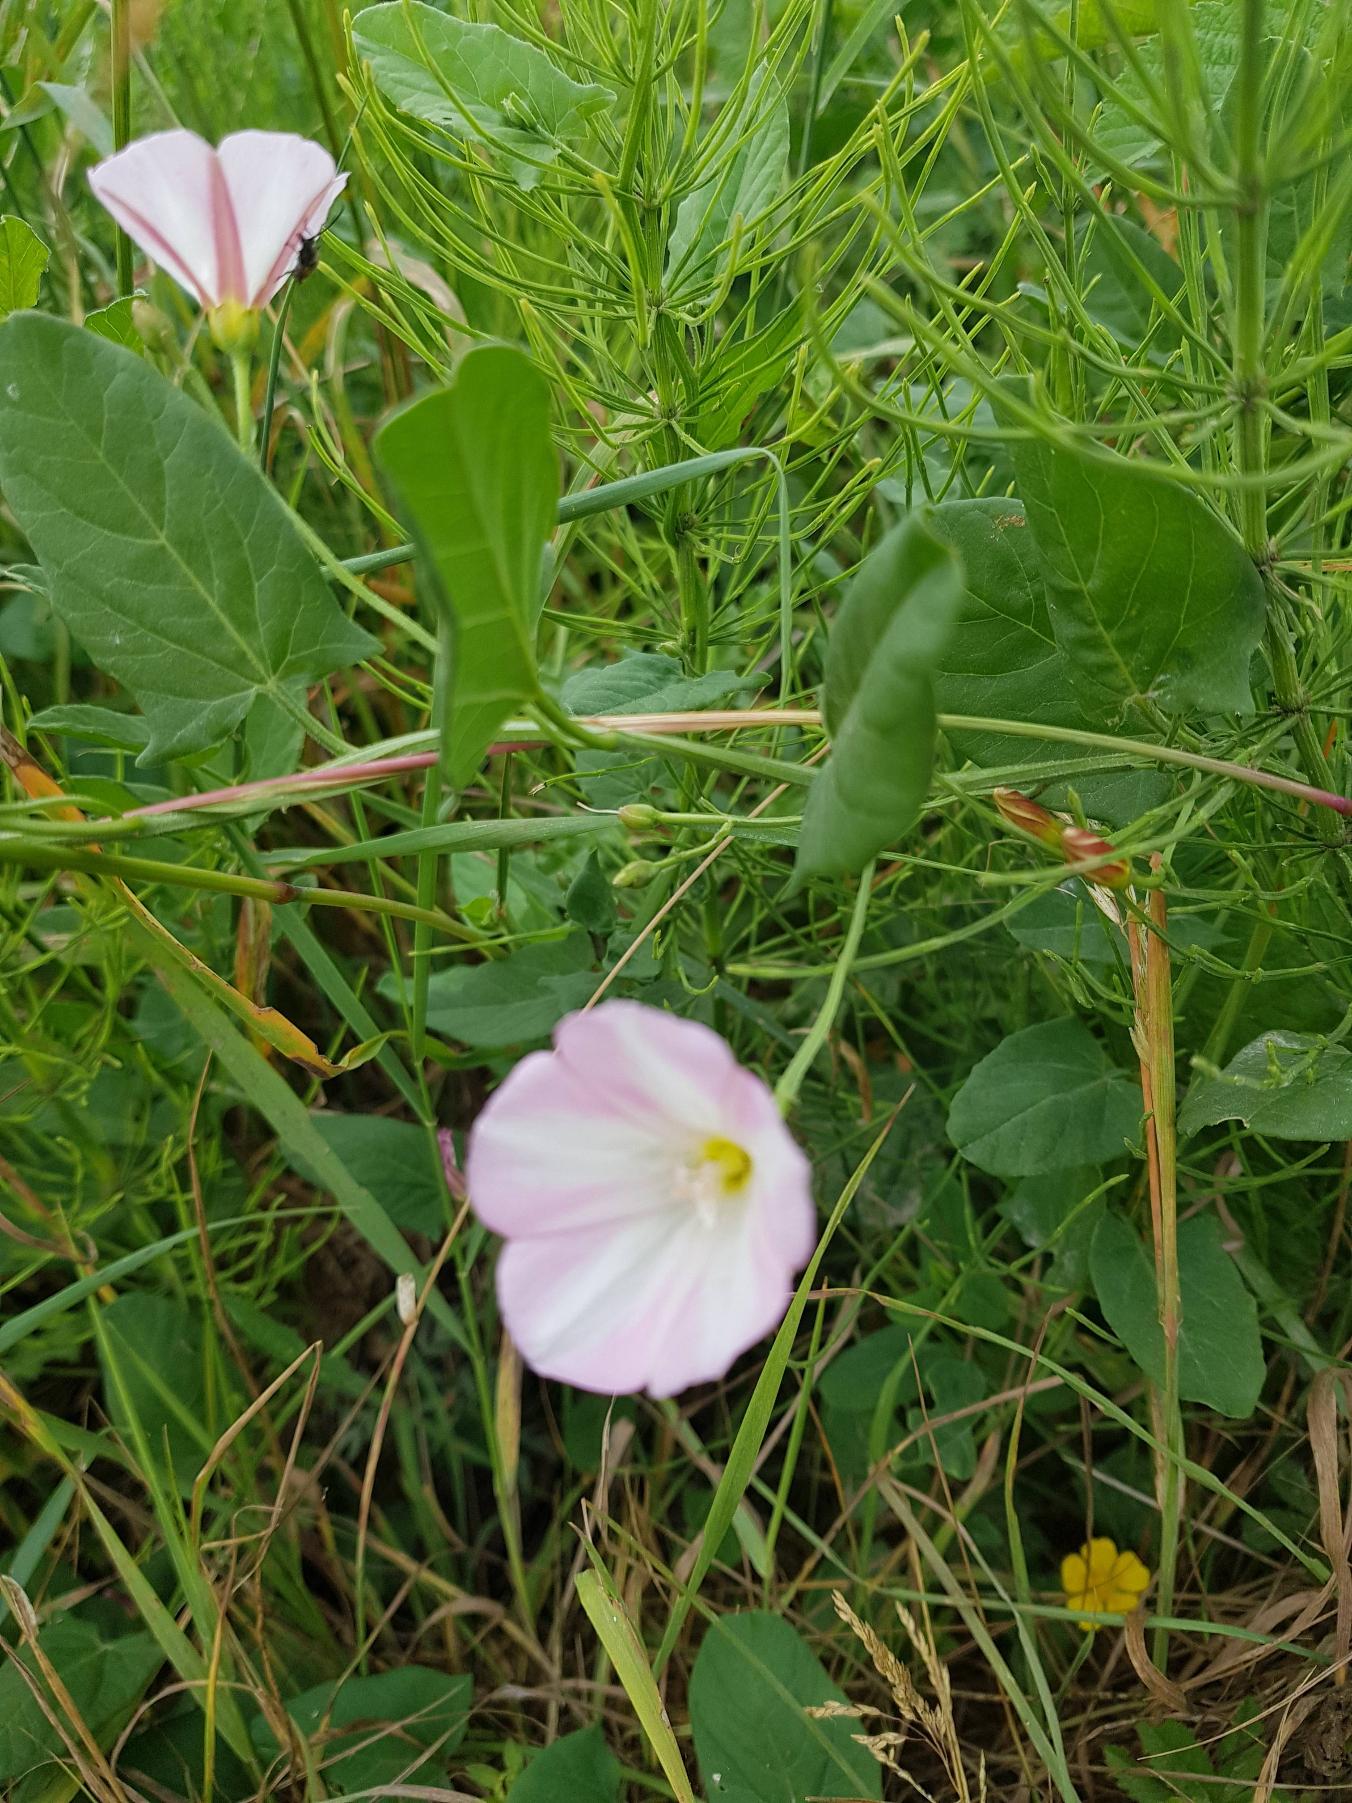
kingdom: Plantae
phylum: Tracheophyta
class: Magnoliopsida
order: Solanales
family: Convolvulaceae
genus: Convolvulus
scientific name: Convolvulus arvensis
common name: Ager-snerle
